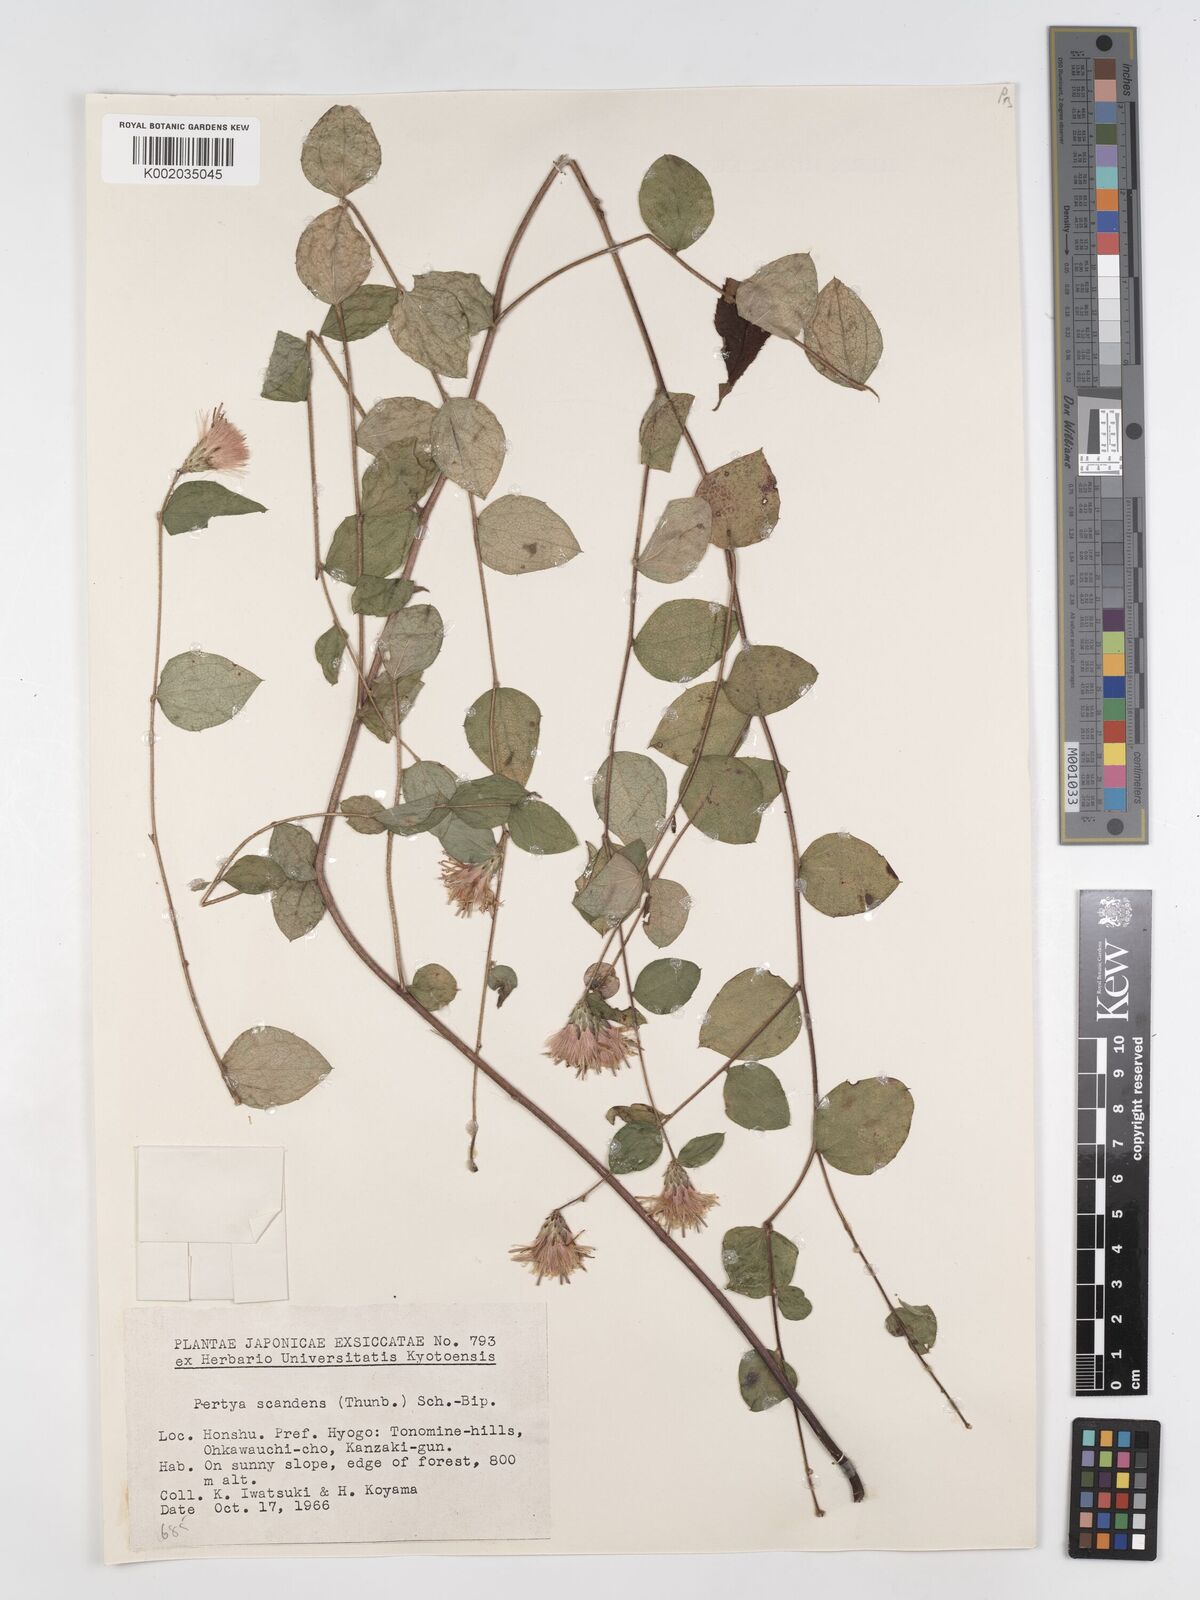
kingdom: Plantae
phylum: Tracheophyta
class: Magnoliopsida
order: Asterales
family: Asteraceae
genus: Pertya
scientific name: Pertya scandens
